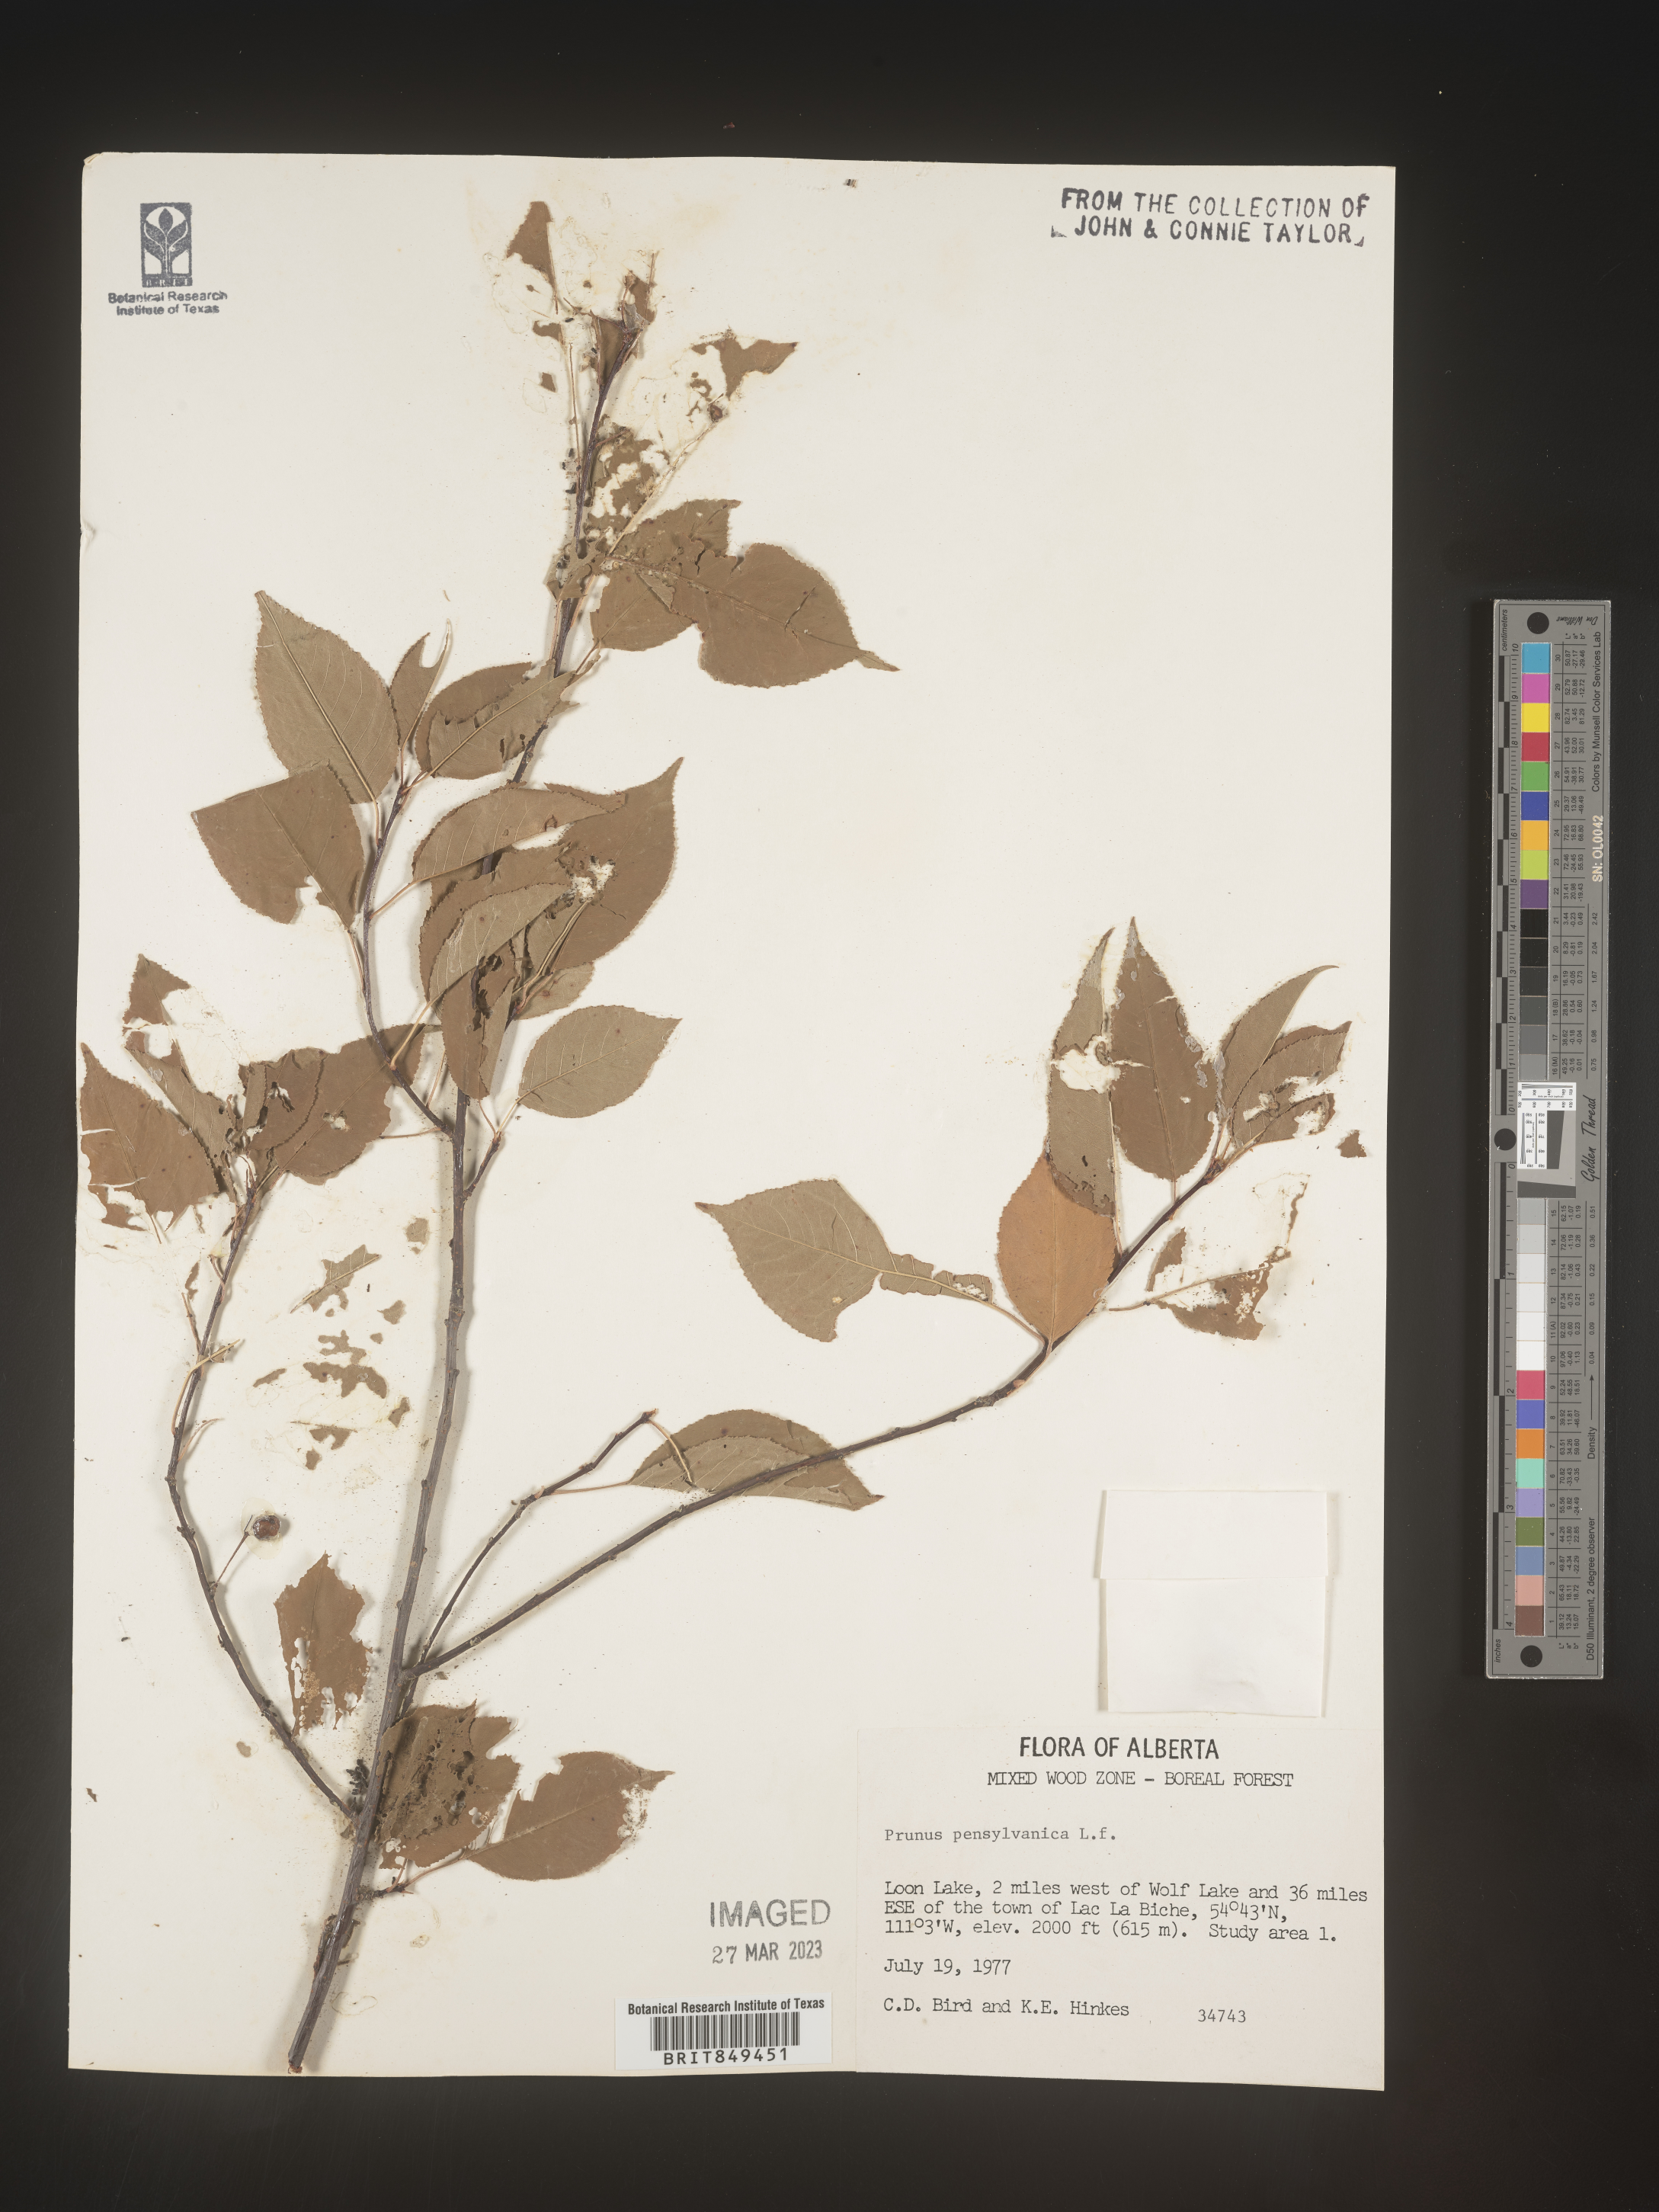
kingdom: Plantae
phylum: Tracheophyta
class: Magnoliopsida
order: Rosales
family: Rosaceae
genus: Prunus
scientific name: Prunus pensylvanica
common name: Pin cherry
